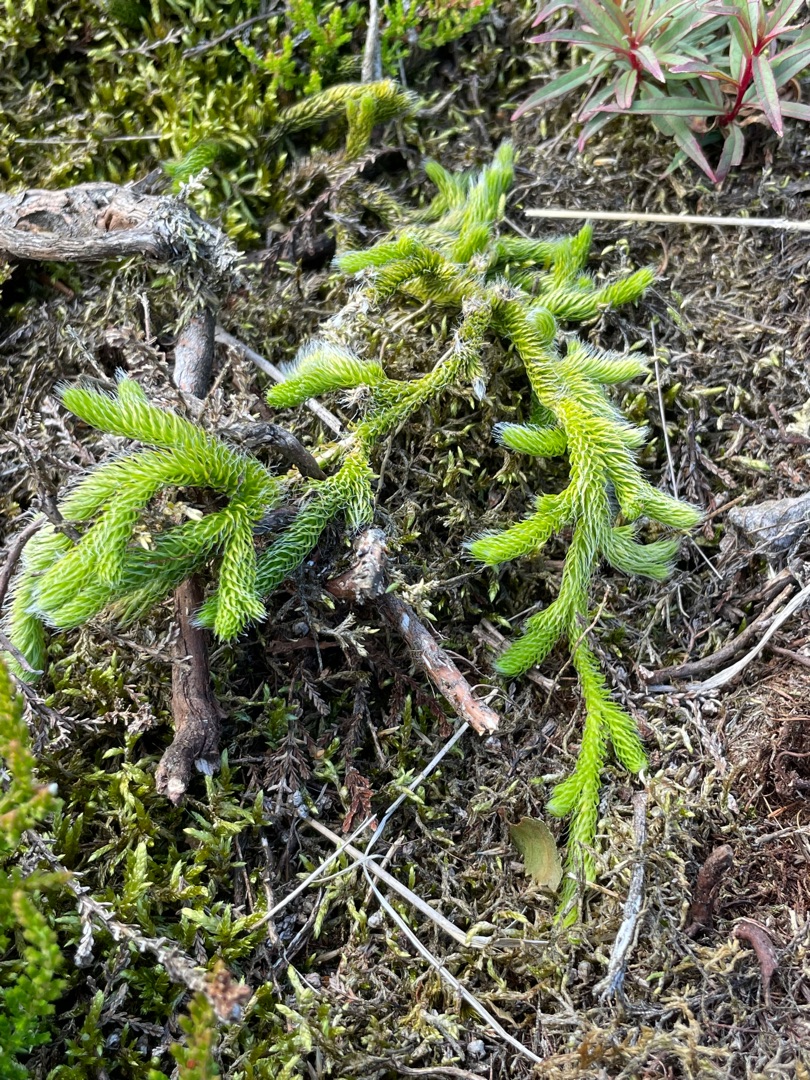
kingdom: Plantae
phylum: Tracheophyta
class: Lycopodiopsida
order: Lycopodiales
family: Lycopodiaceae
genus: Lycopodium
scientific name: Lycopodium clavatum
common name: Almindelig ulvefod
